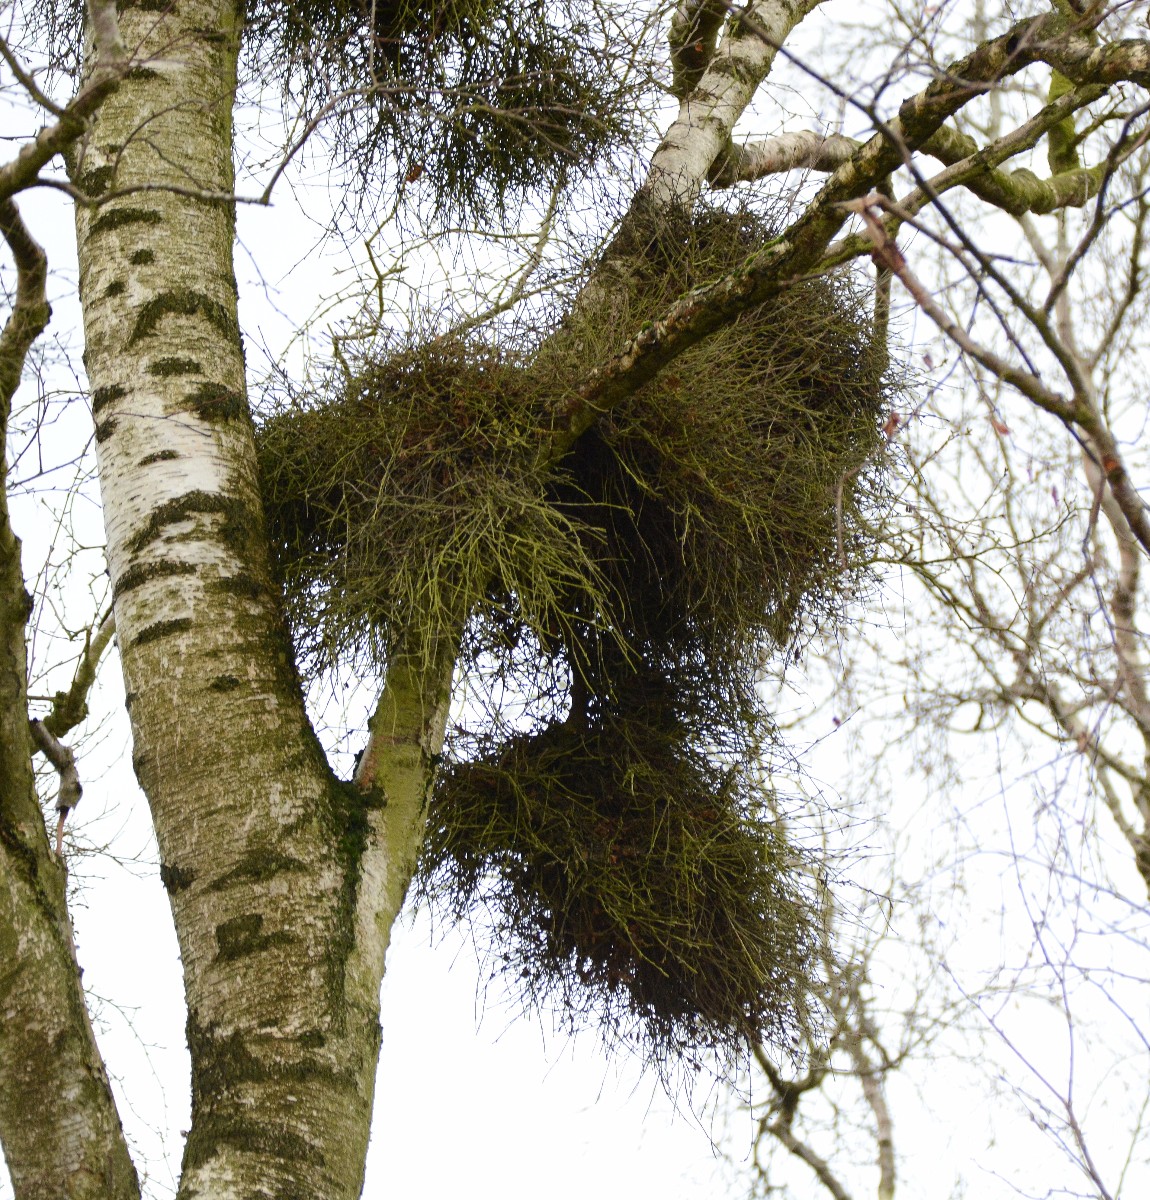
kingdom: Fungi
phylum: Ascomycota
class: Taphrinomycetes
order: Taphrinales
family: Taphrinaceae
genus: Taphrina
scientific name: Taphrina betulina
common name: hekse-sækdug
